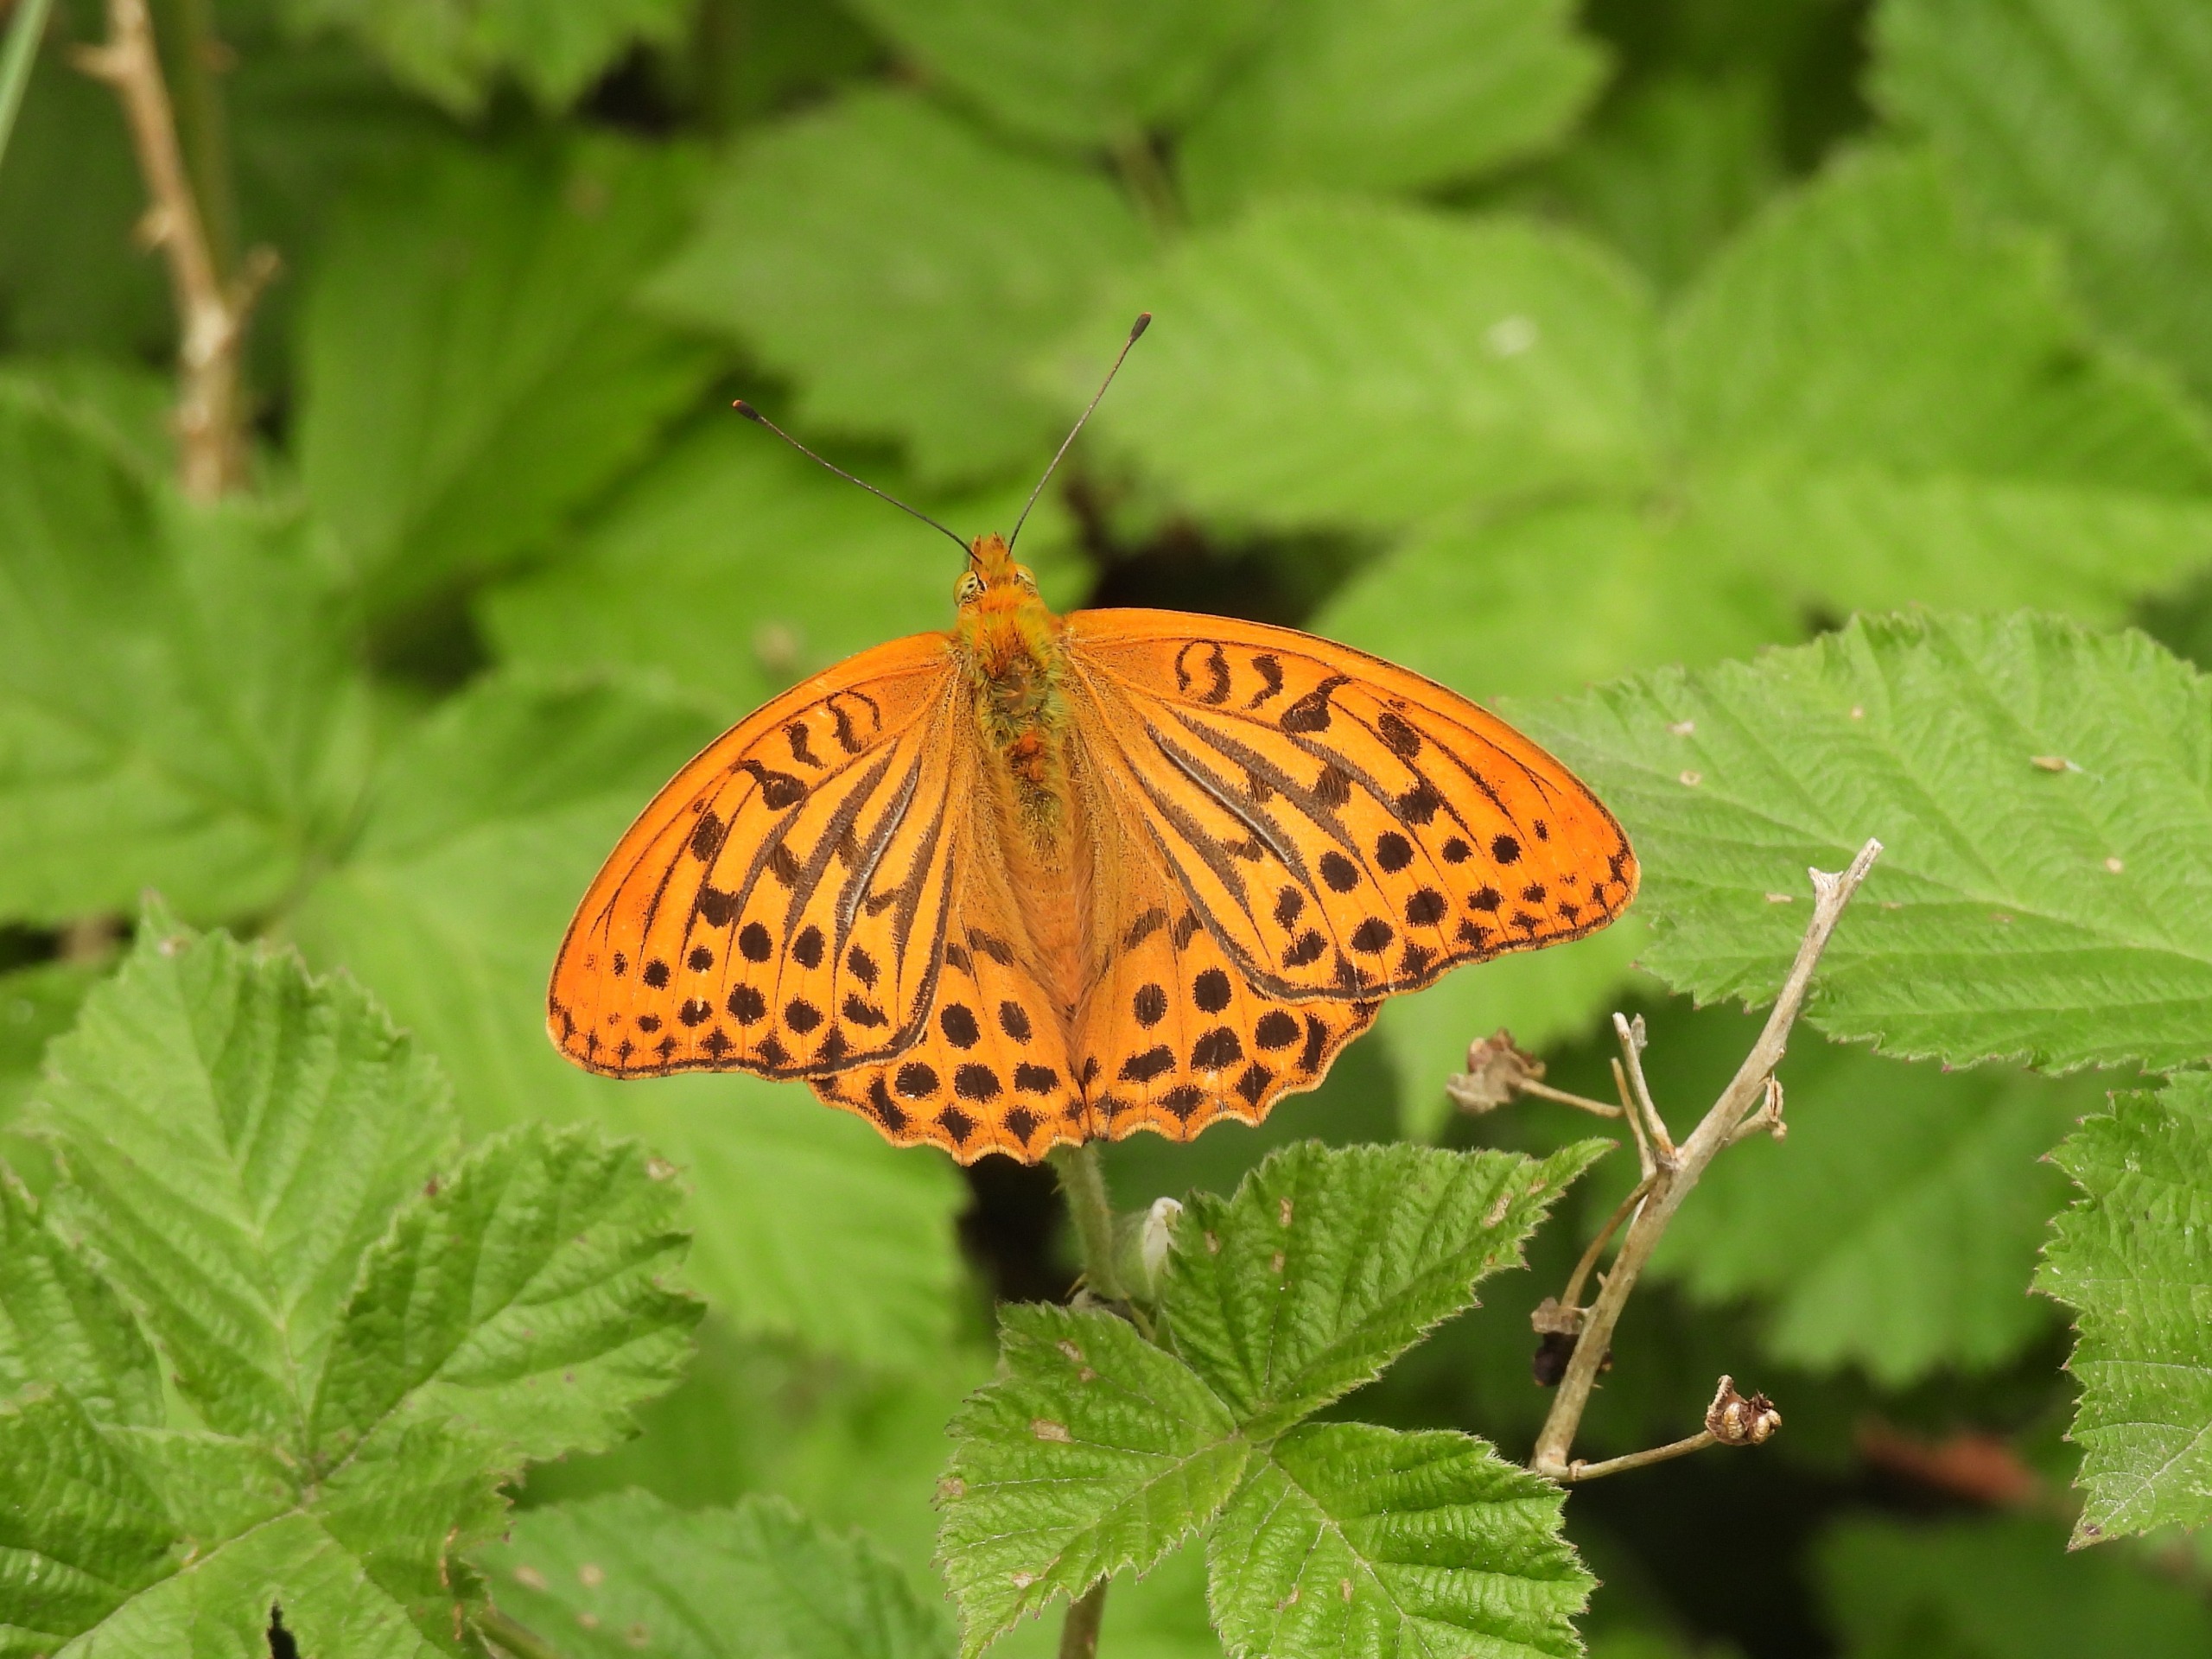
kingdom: Animalia
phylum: Arthropoda
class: Insecta
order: Lepidoptera
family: Nymphalidae
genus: Argynnis
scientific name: Argynnis paphia
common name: Kejserkåbe
